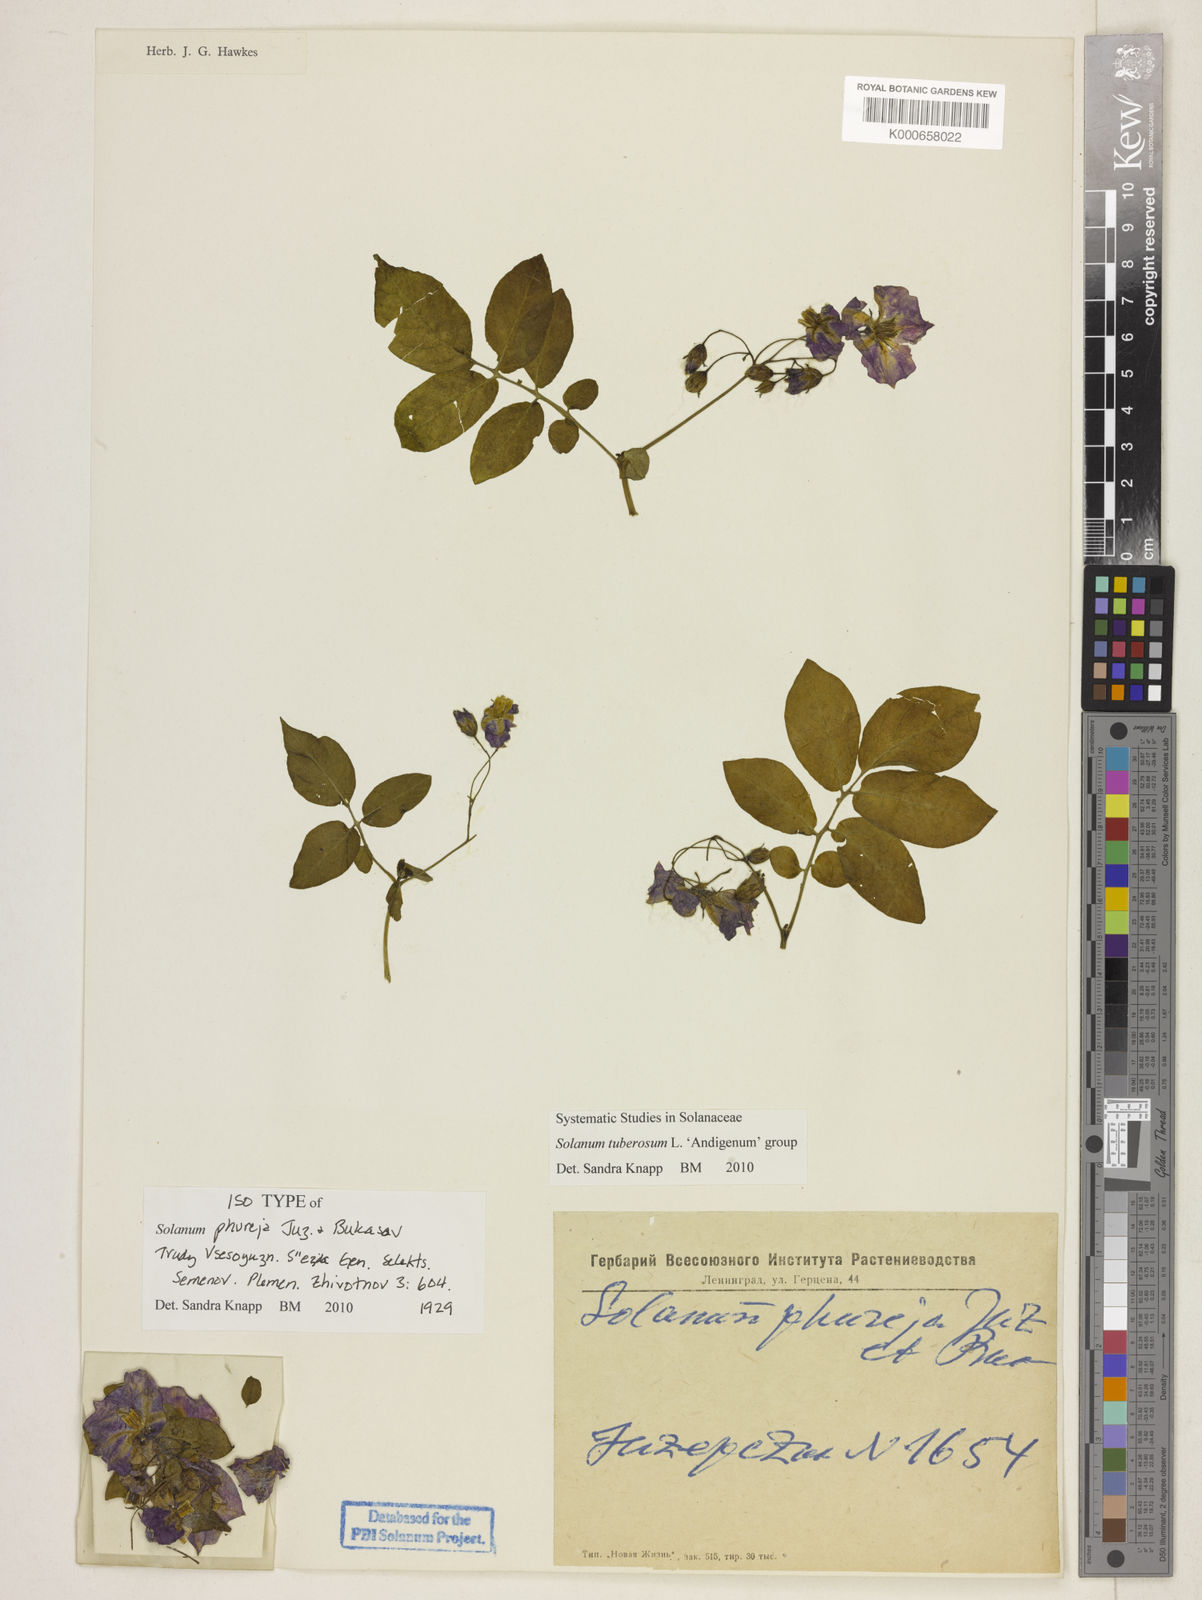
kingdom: Plantae
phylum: Tracheophyta
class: Magnoliopsida
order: Solanales
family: Solanaceae
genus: Solanum
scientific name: Solanum tuberosum
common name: Potato
